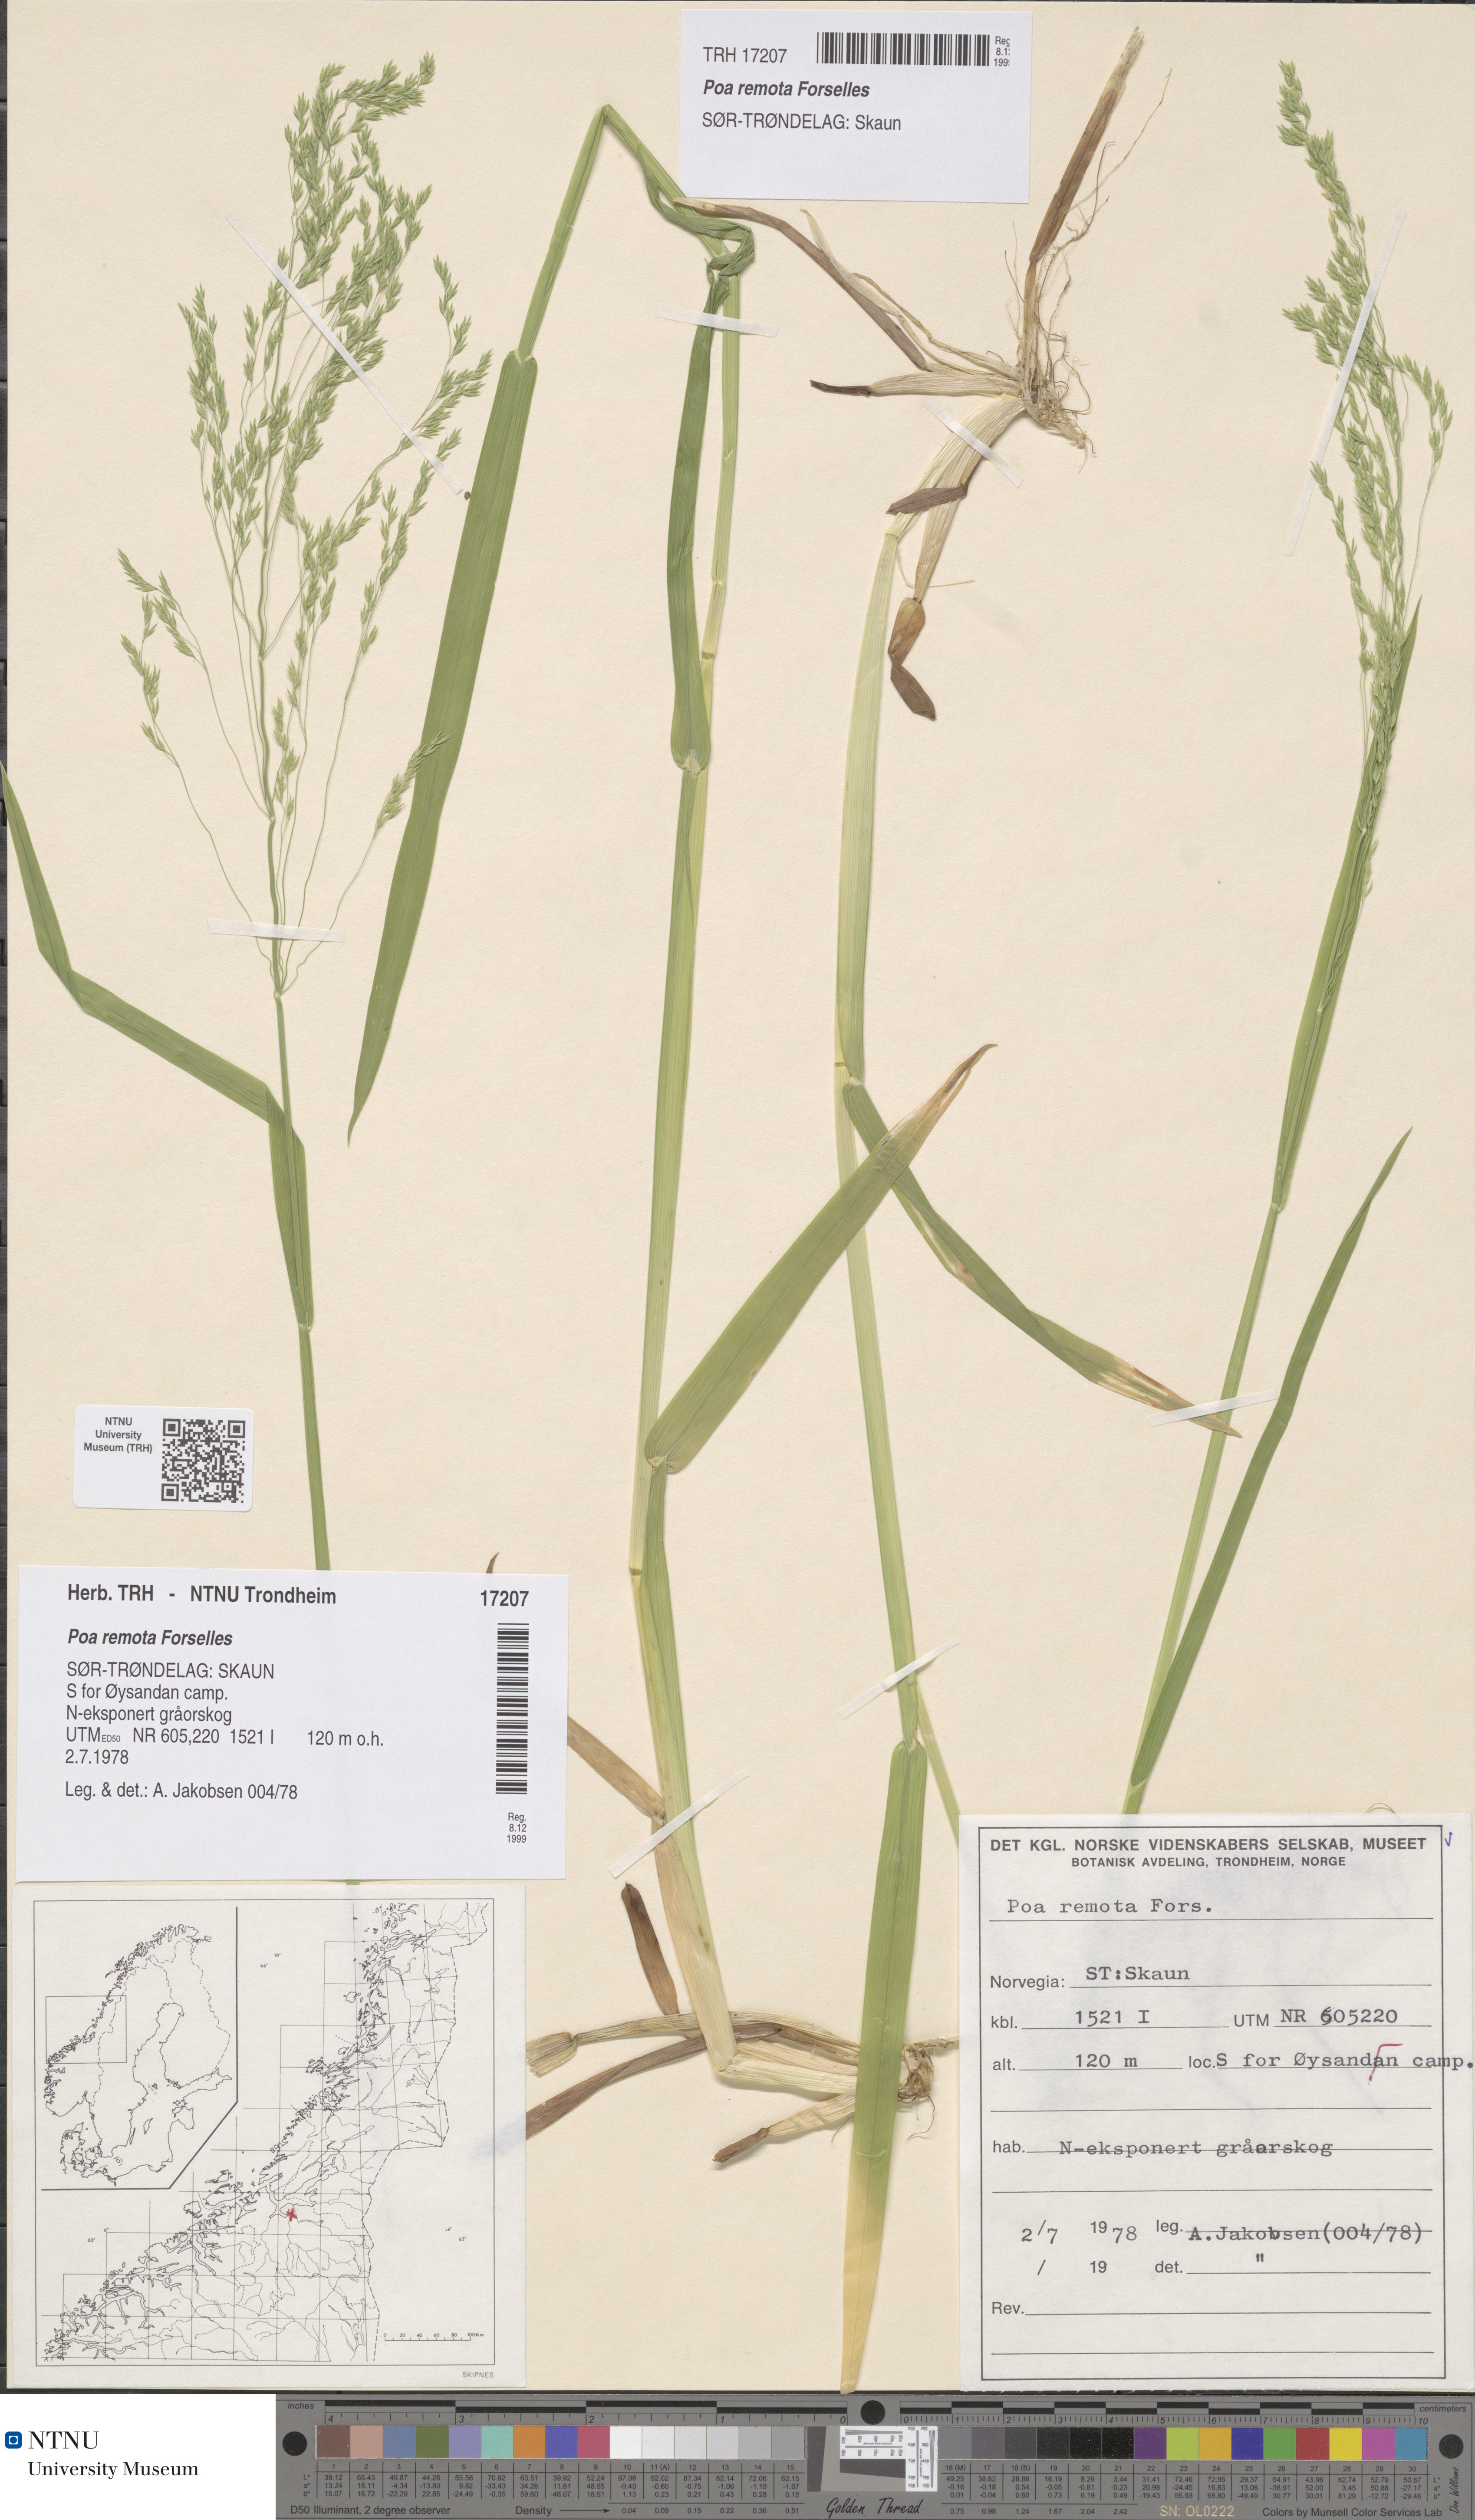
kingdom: Plantae
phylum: Tracheophyta
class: Liliopsida
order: Poales
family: Poaceae
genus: Poa
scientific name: Poa remota
